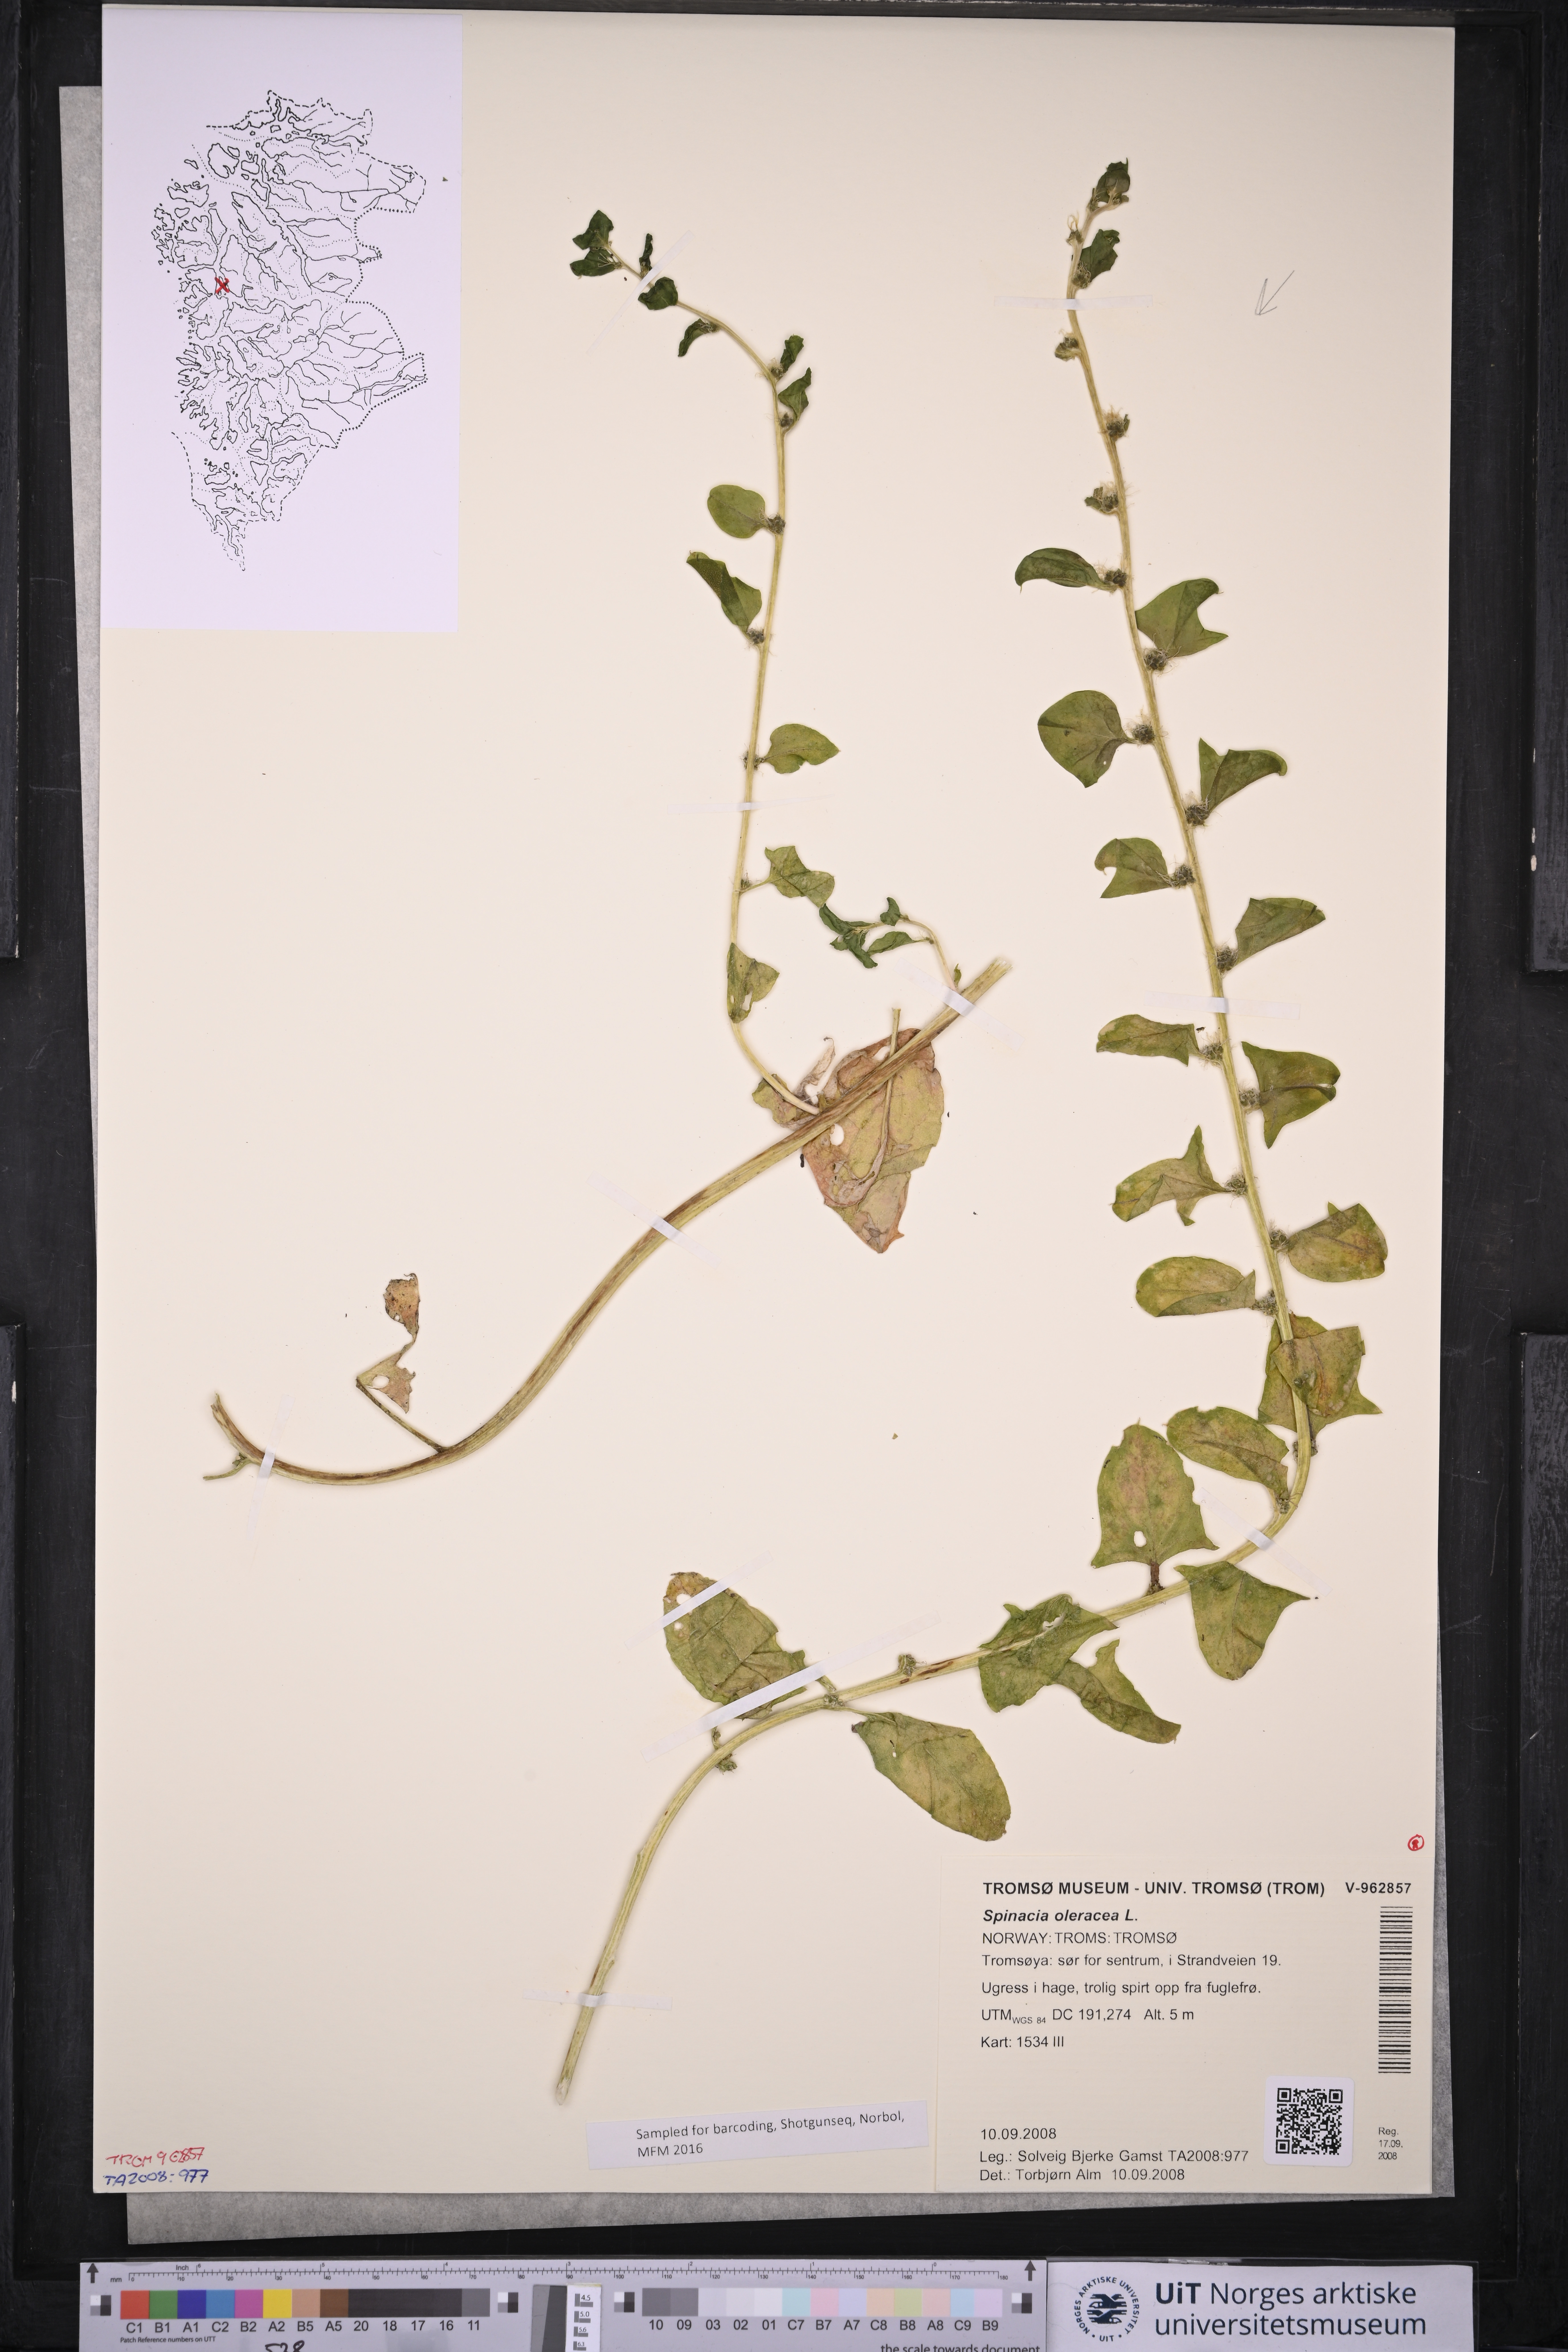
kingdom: Plantae
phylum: Tracheophyta
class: Magnoliopsida
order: Caryophyllales
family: Amaranthaceae
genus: Spinacia
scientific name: Spinacia oleracea
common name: Spinach
